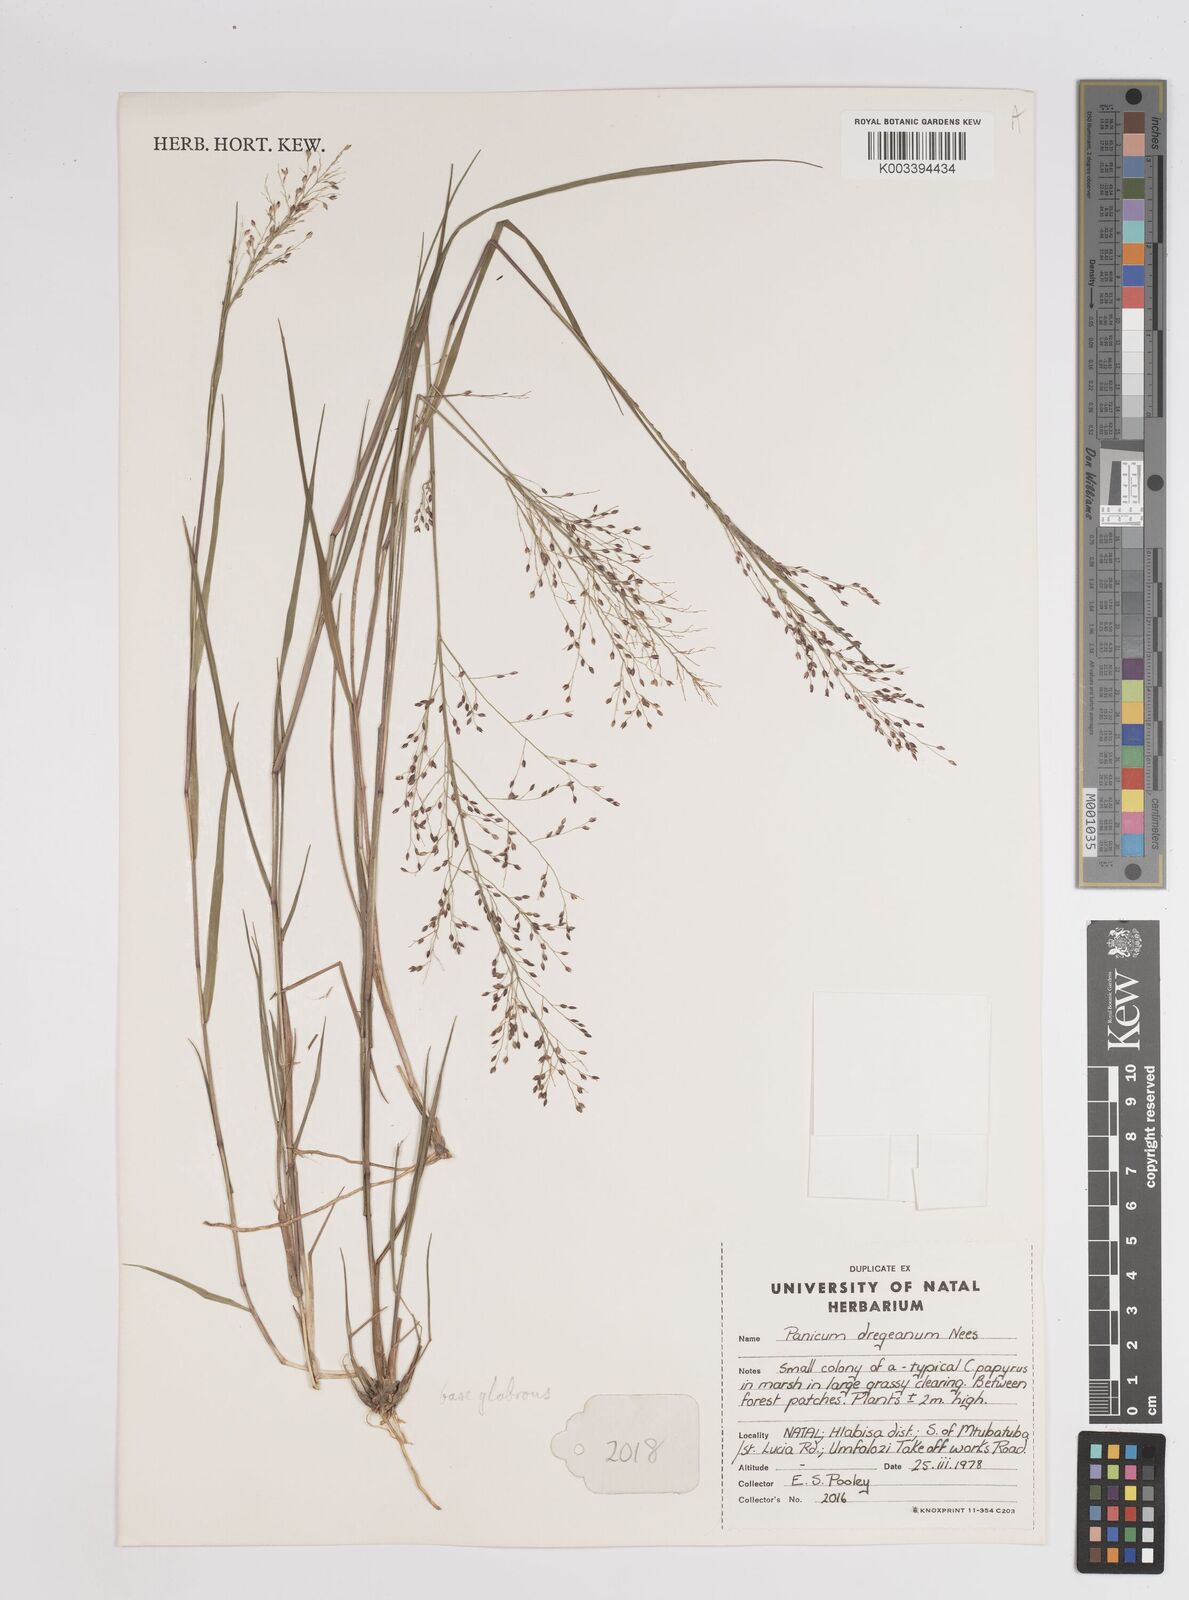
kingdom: Plantae
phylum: Tracheophyta
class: Liliopsida
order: Poales
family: Poaceae
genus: Panicum
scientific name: Panicum
